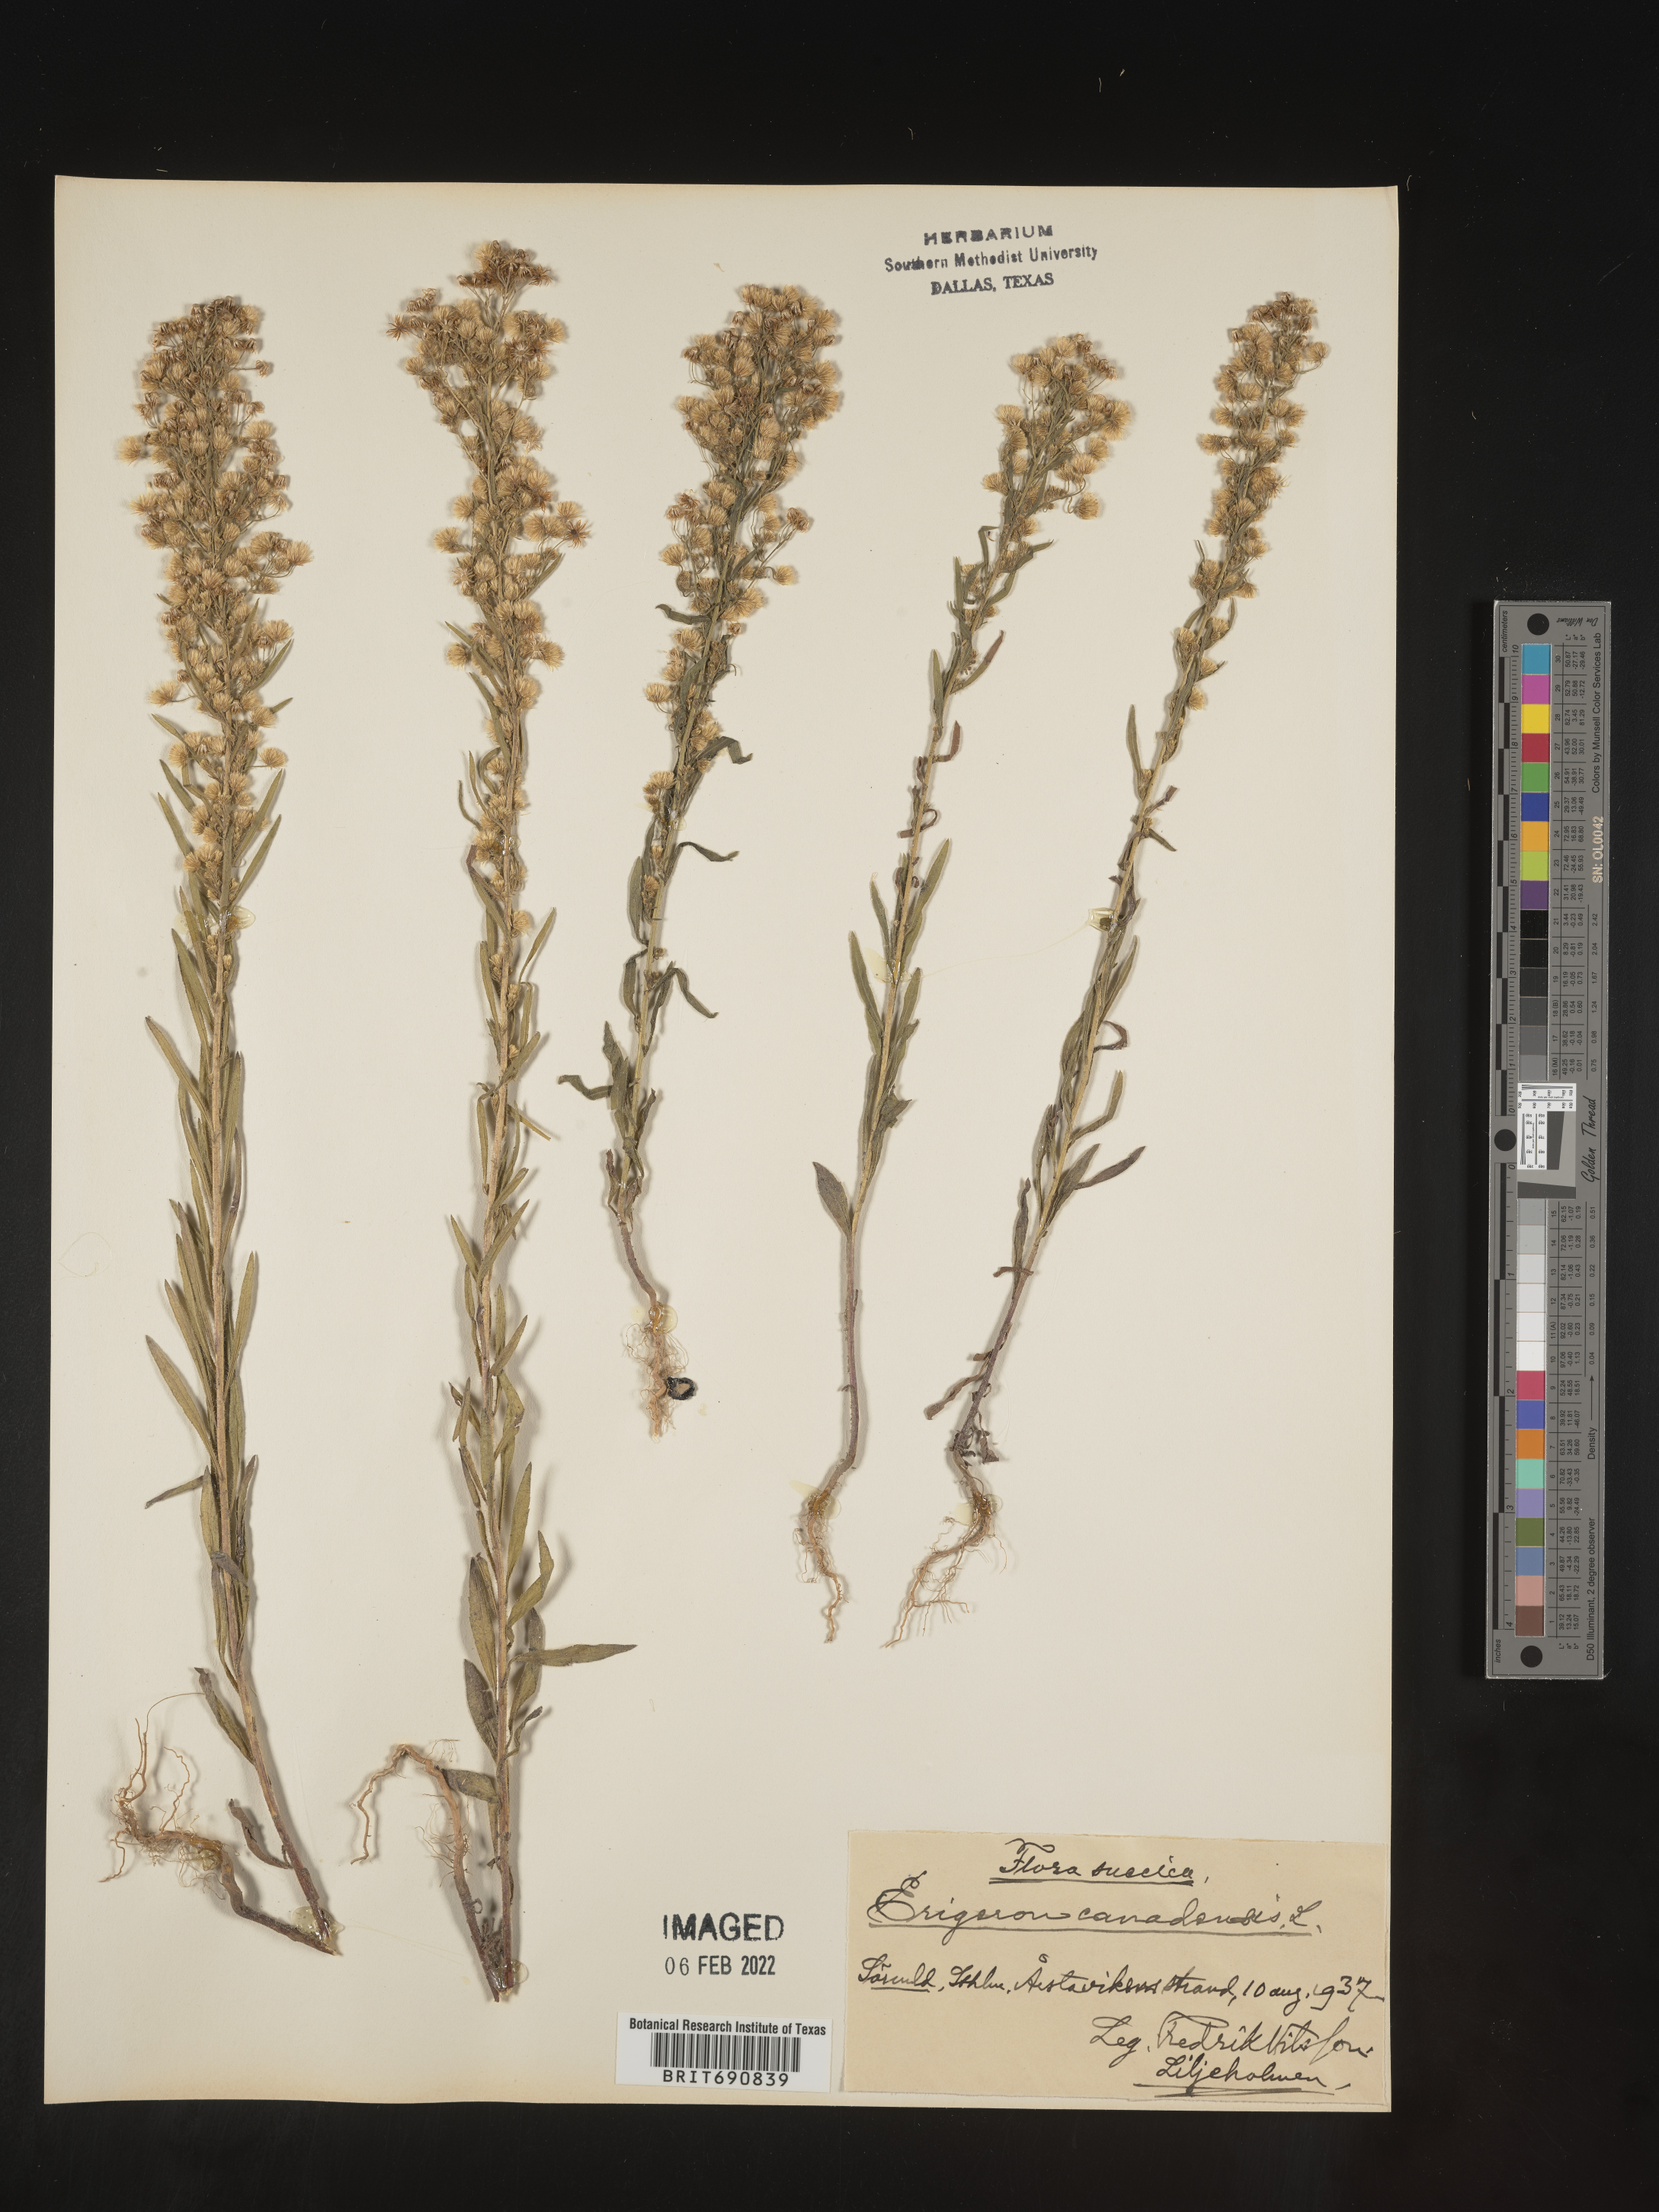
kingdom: Plantae
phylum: Tracheophyta
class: Magnoliopsida
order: Asterales
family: Asteraceae
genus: Conyza
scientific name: Conyza
